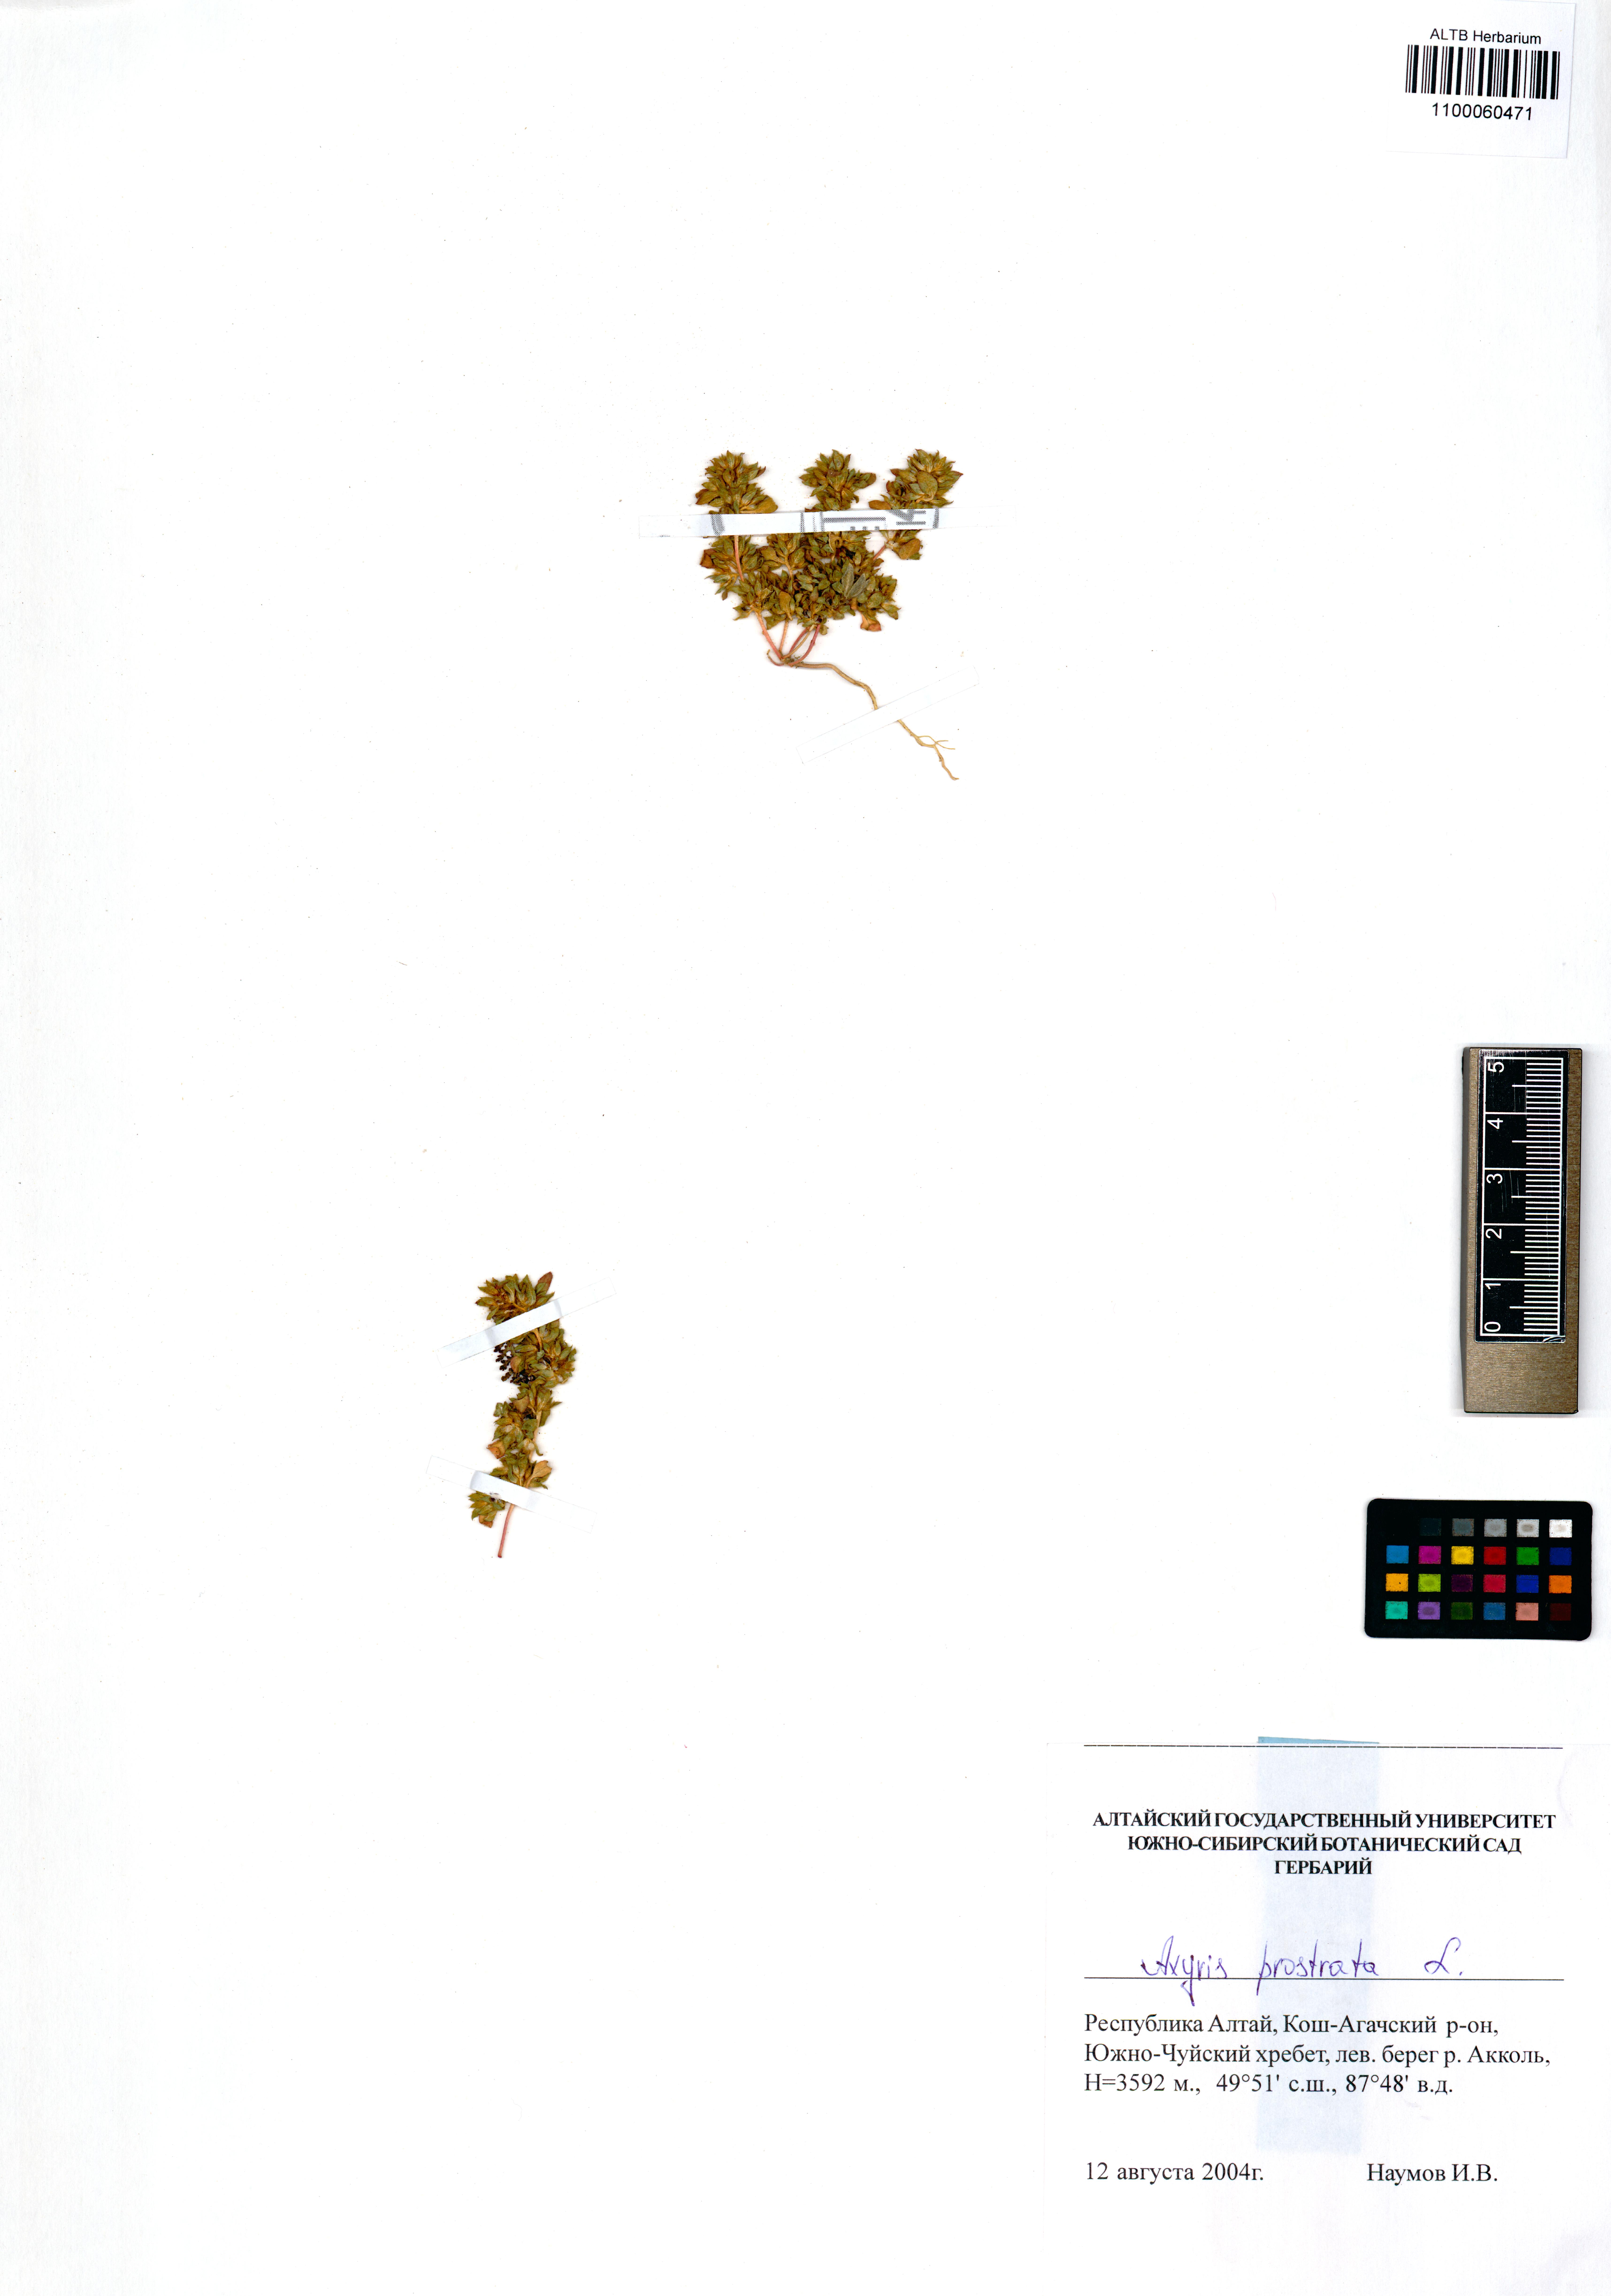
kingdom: Plantae
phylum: Tracheophyta
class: Magnoliopsida
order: Boraginales
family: Boraginaceae
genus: Lithospermum
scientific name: Lithospermum officinale
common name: Common gromwell
